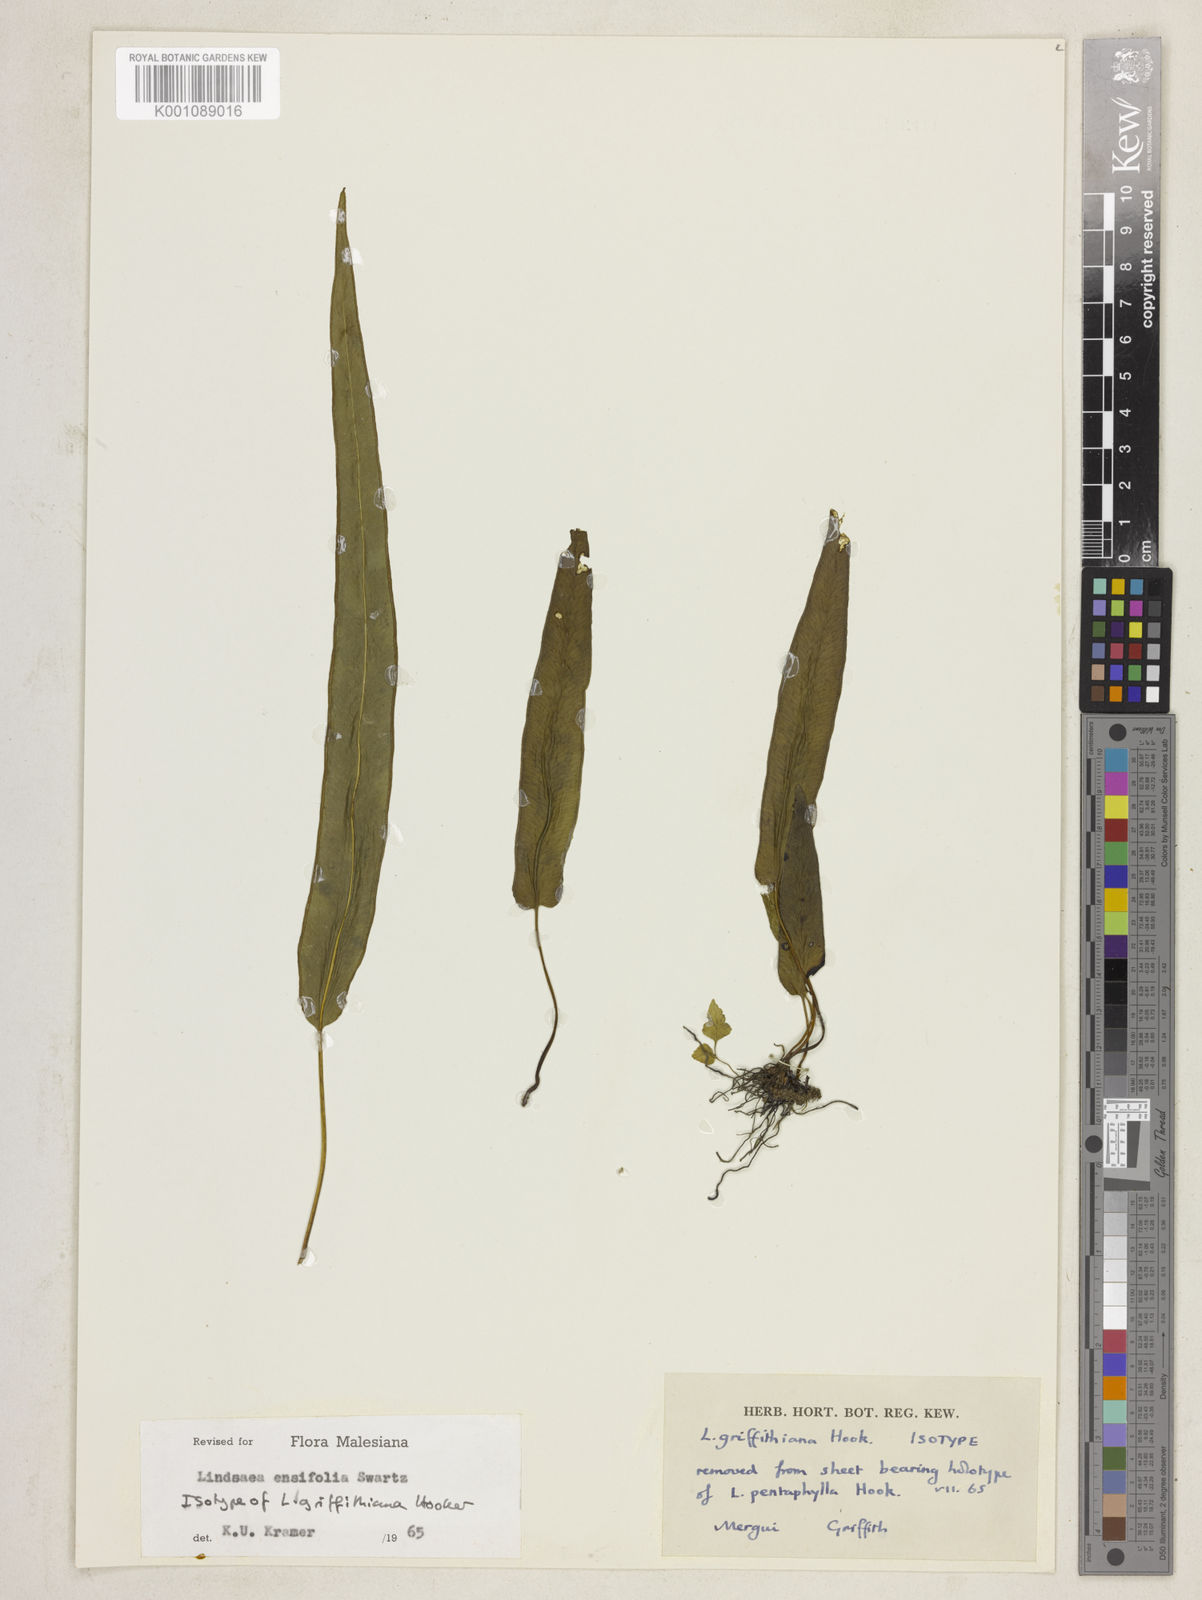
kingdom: Plantae
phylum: Tracheophyta
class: Polypodiopsida
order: Polypodiales
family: Lindsaeaceae
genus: Lindsaea
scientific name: Lindsaea ensifolia
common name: Graceful necklace fern
